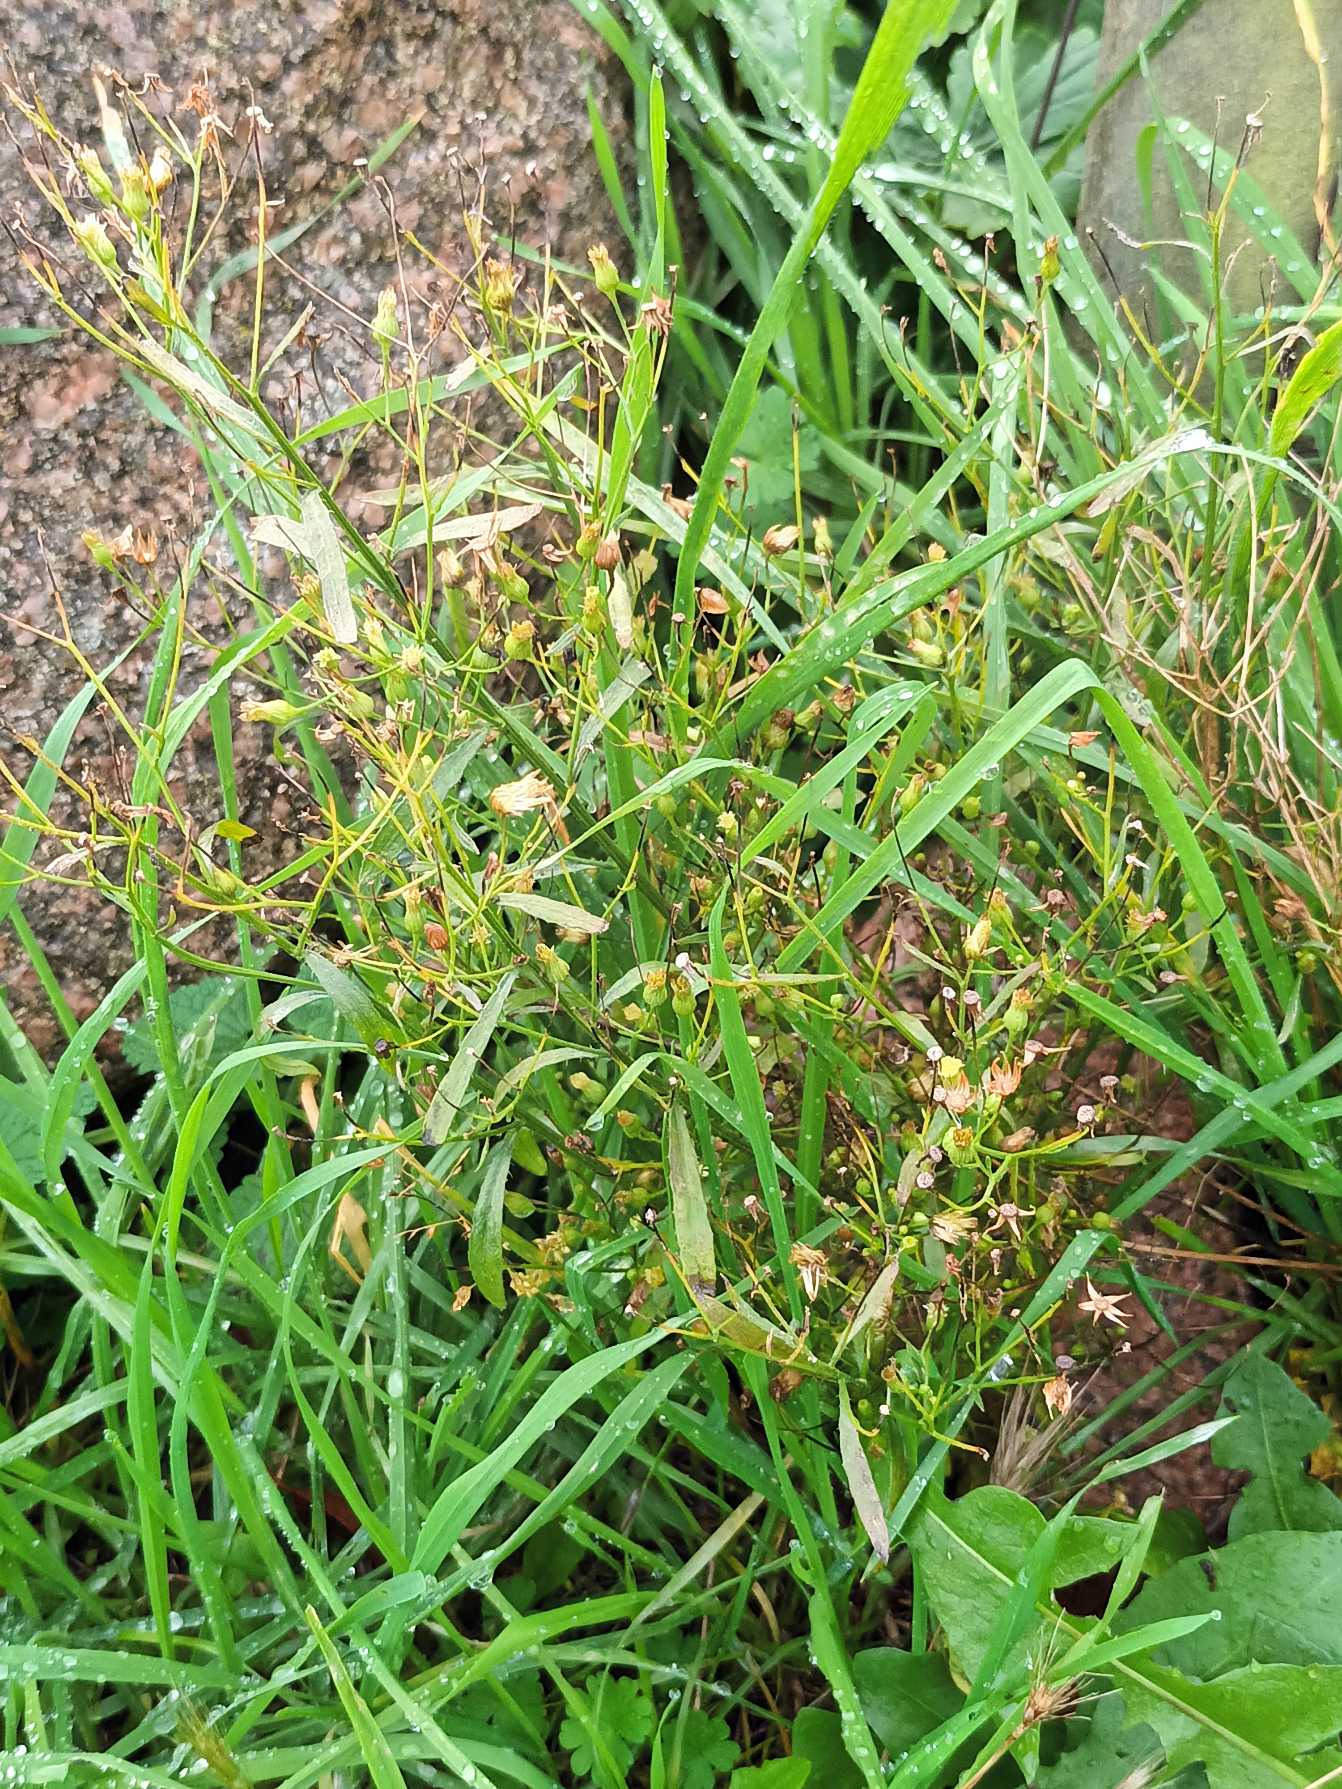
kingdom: Plantae
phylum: Tracheophyta
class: Magnoliopsida
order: Asterales
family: Asteraceae
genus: Erigeron
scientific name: Erigeron canadensis
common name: Kanadisk bakkestjerne
